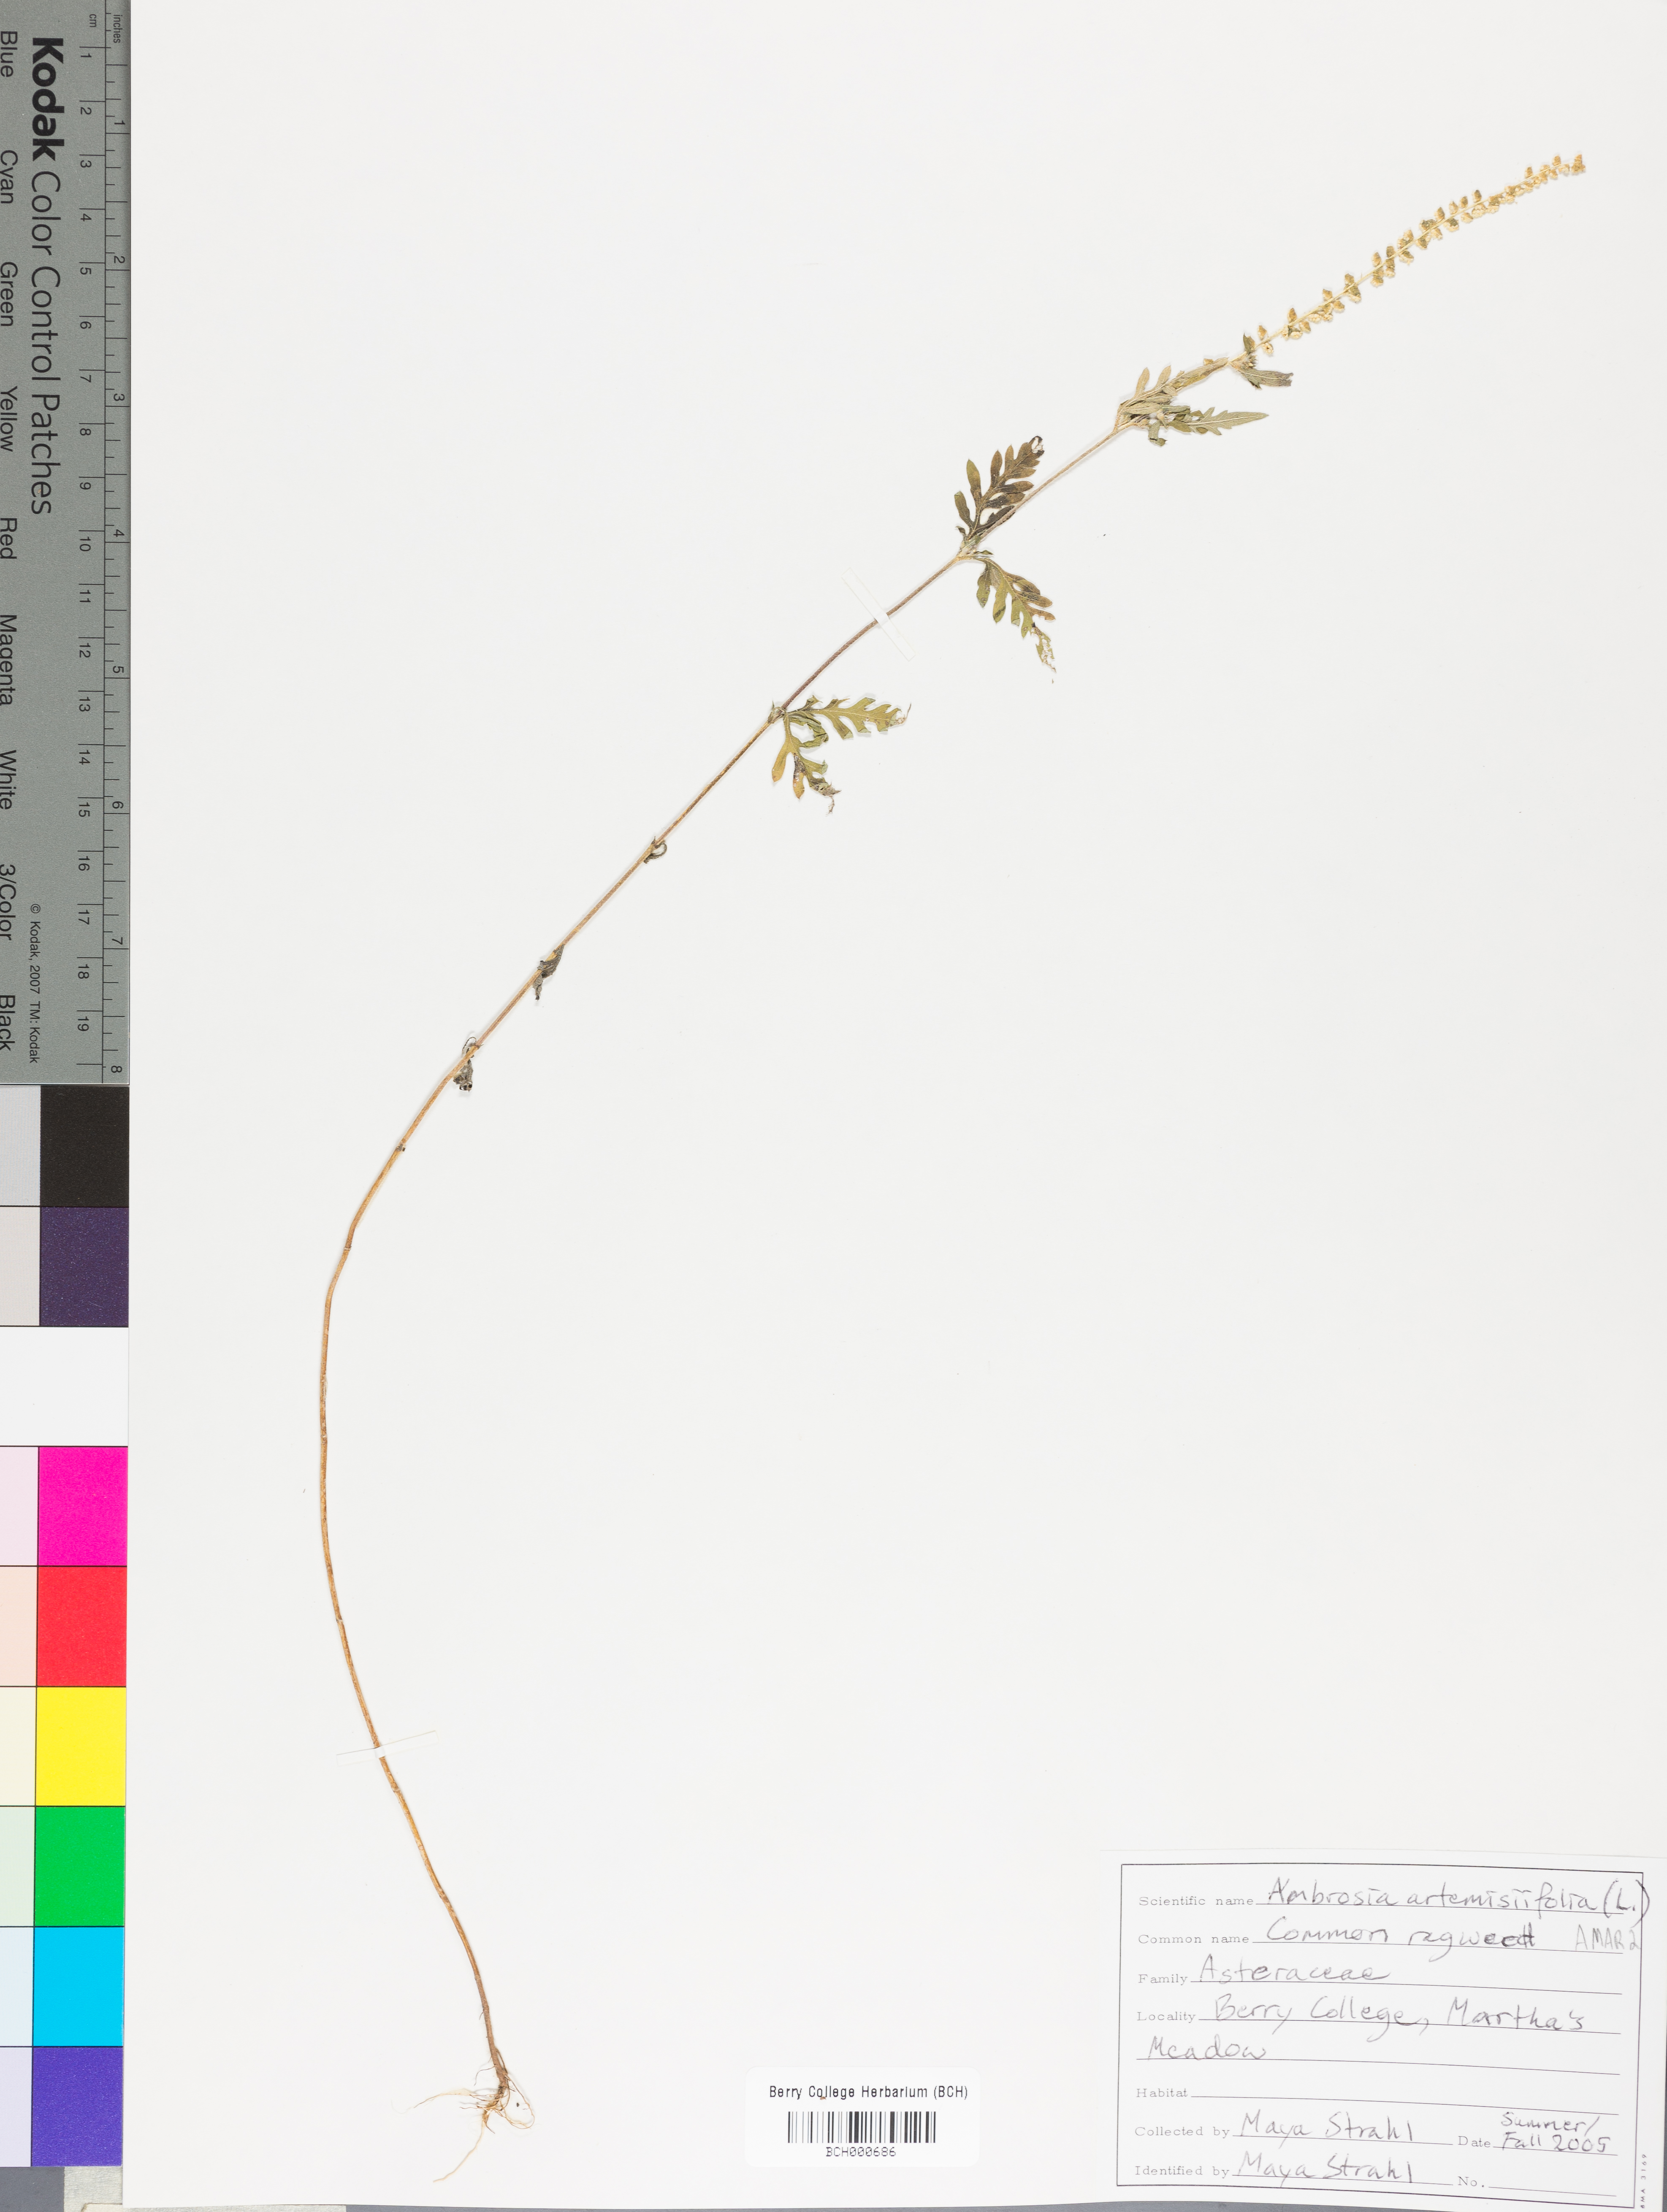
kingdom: Plantae
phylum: Tracheophyta
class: Magnoliopsida
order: Asterales
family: Asteraceae
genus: Ambrosia
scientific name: Ambrosia artemisiifolia
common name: Annual ragweed
